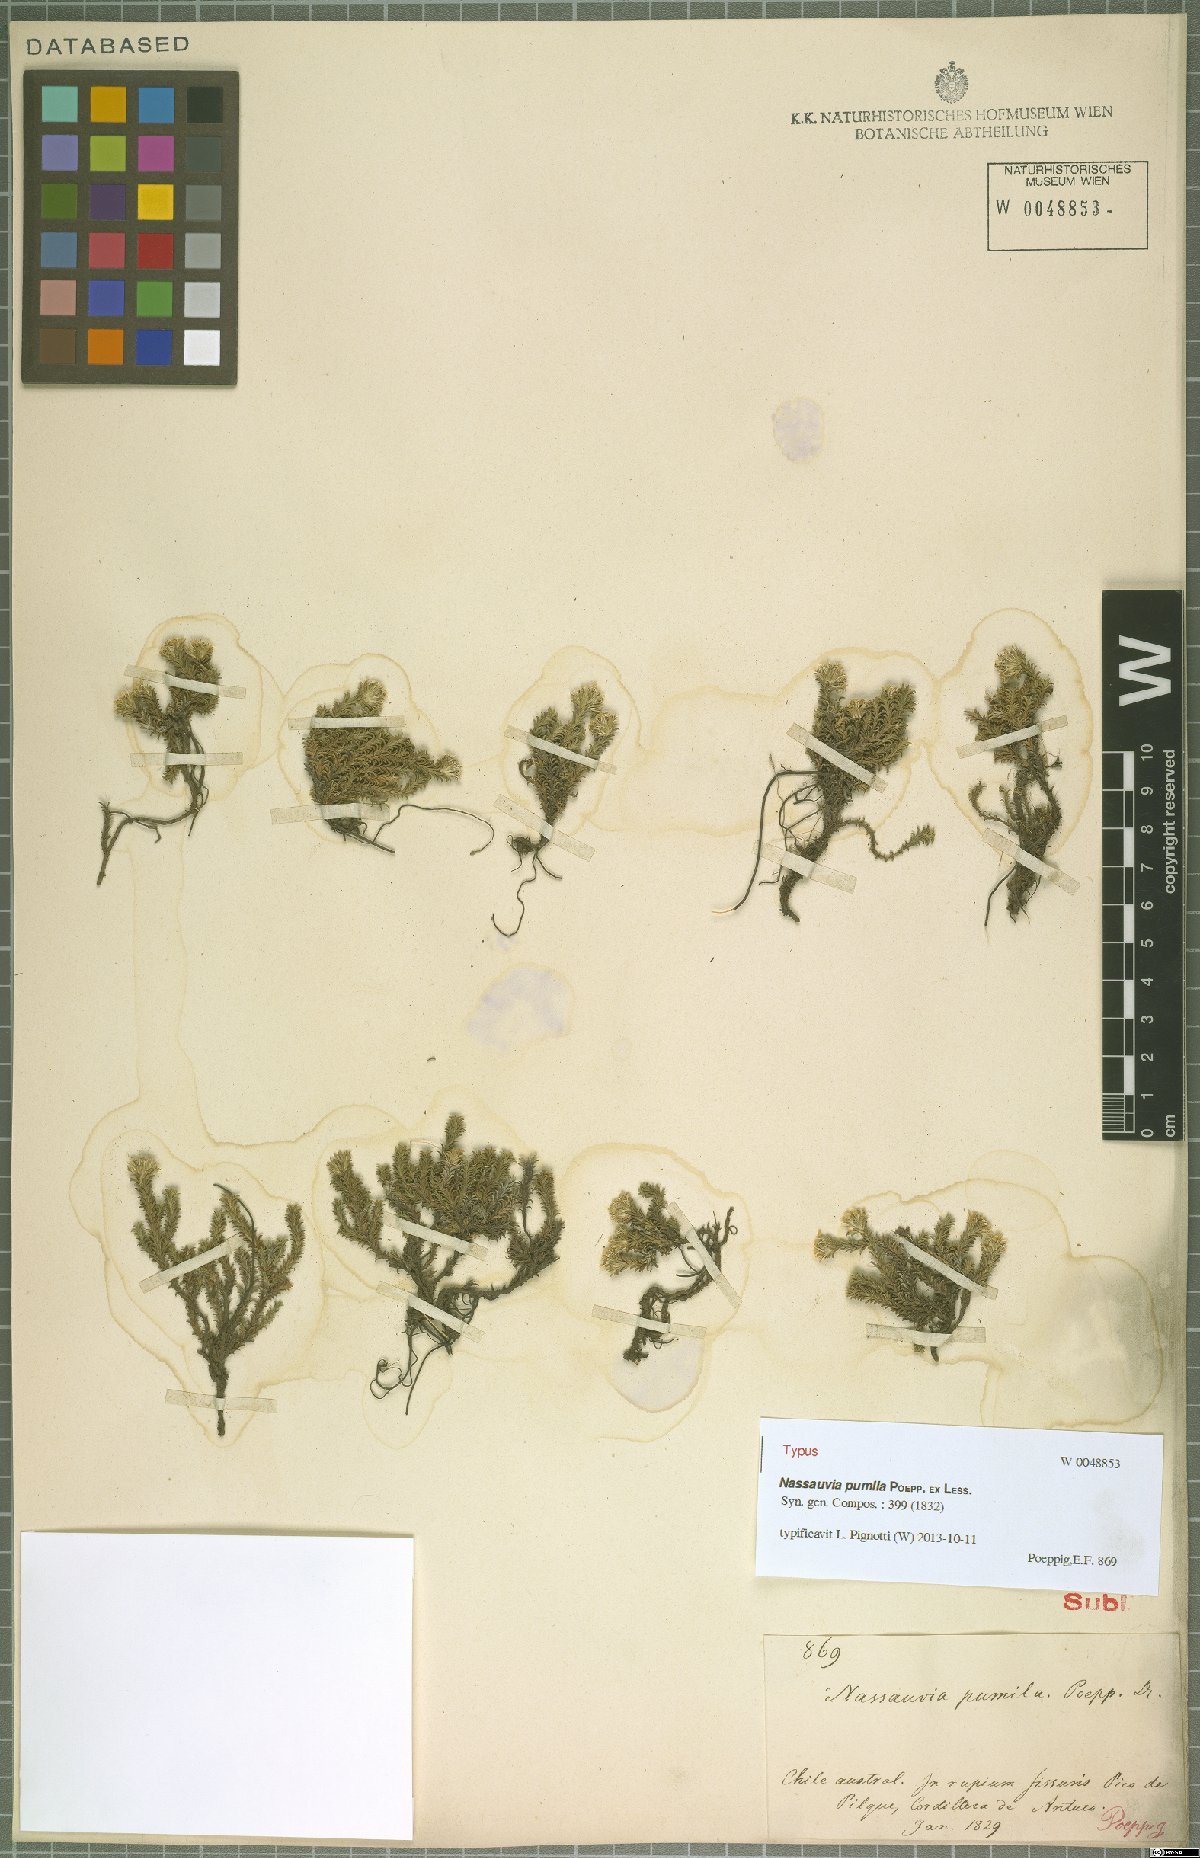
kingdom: Plantae
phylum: Tracheophyta
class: Magnoliopsida
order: Asterales
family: Asteraceae
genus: Nassauvia
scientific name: Nassauvia pumila
